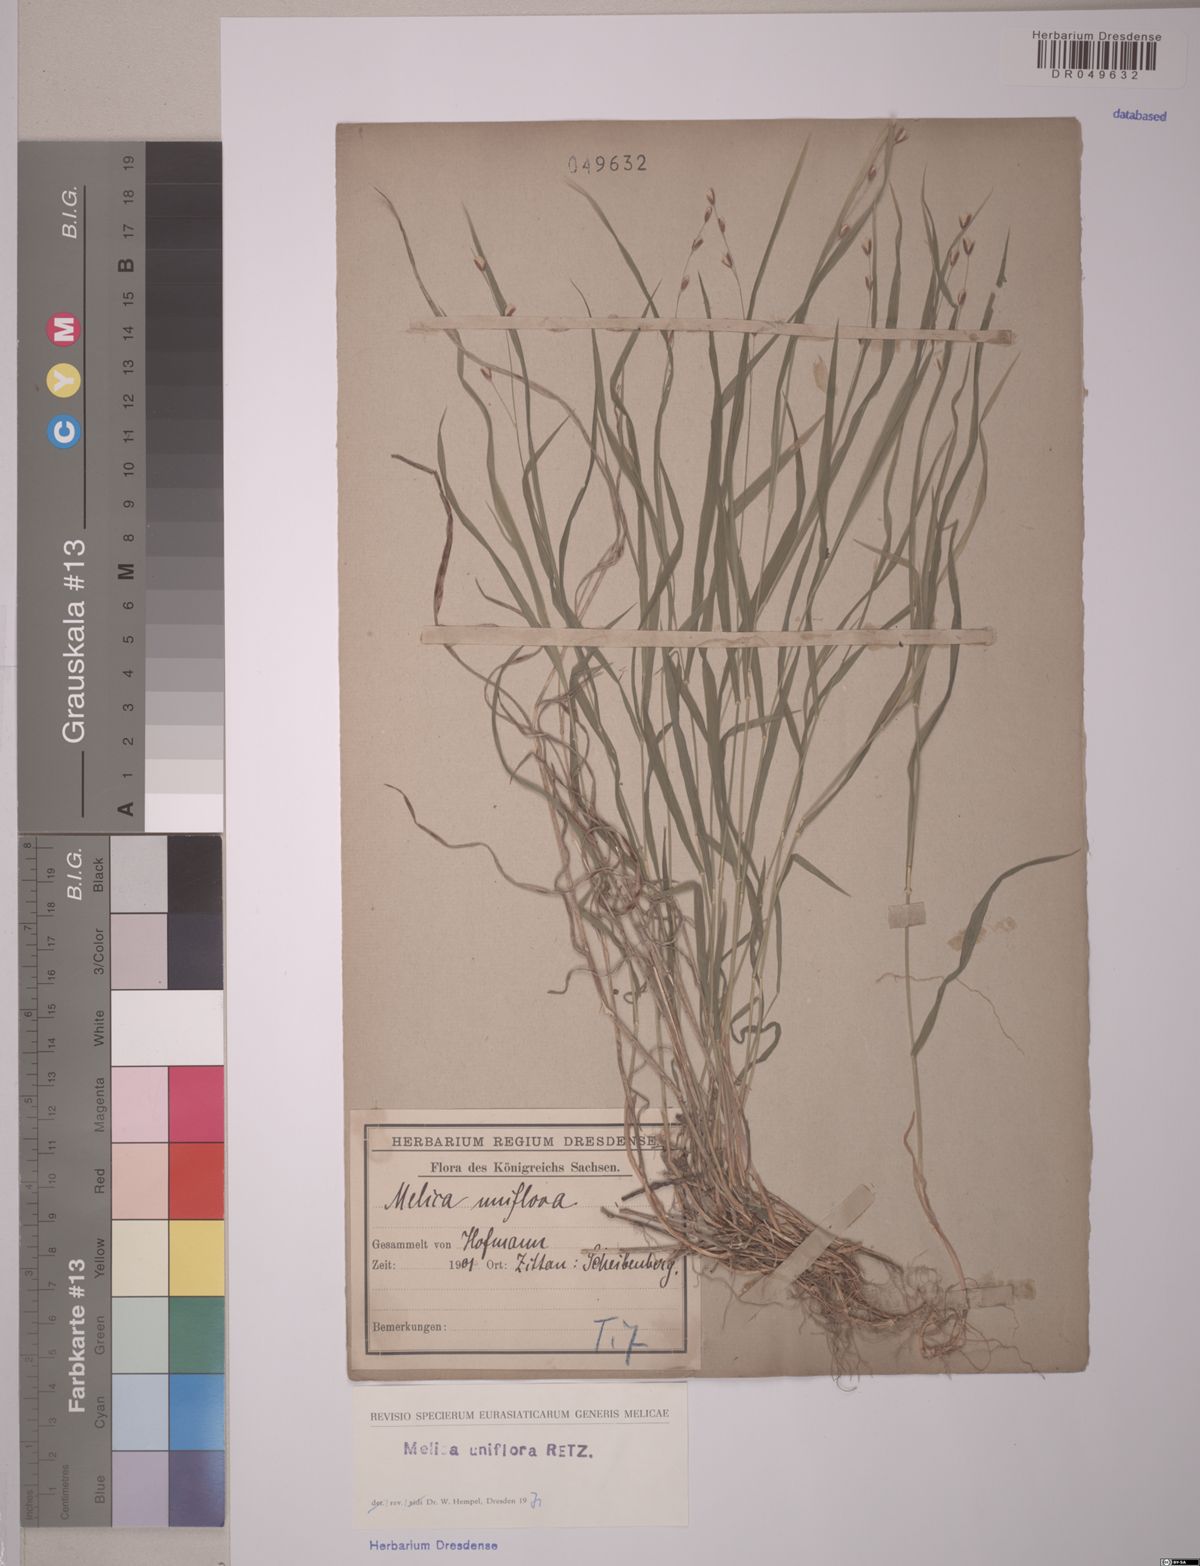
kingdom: Plantae
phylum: Tracheophyta
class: Liliopsida
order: Poales
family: Poaceae
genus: Melica
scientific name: Melica uniflora
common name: Wood melick
